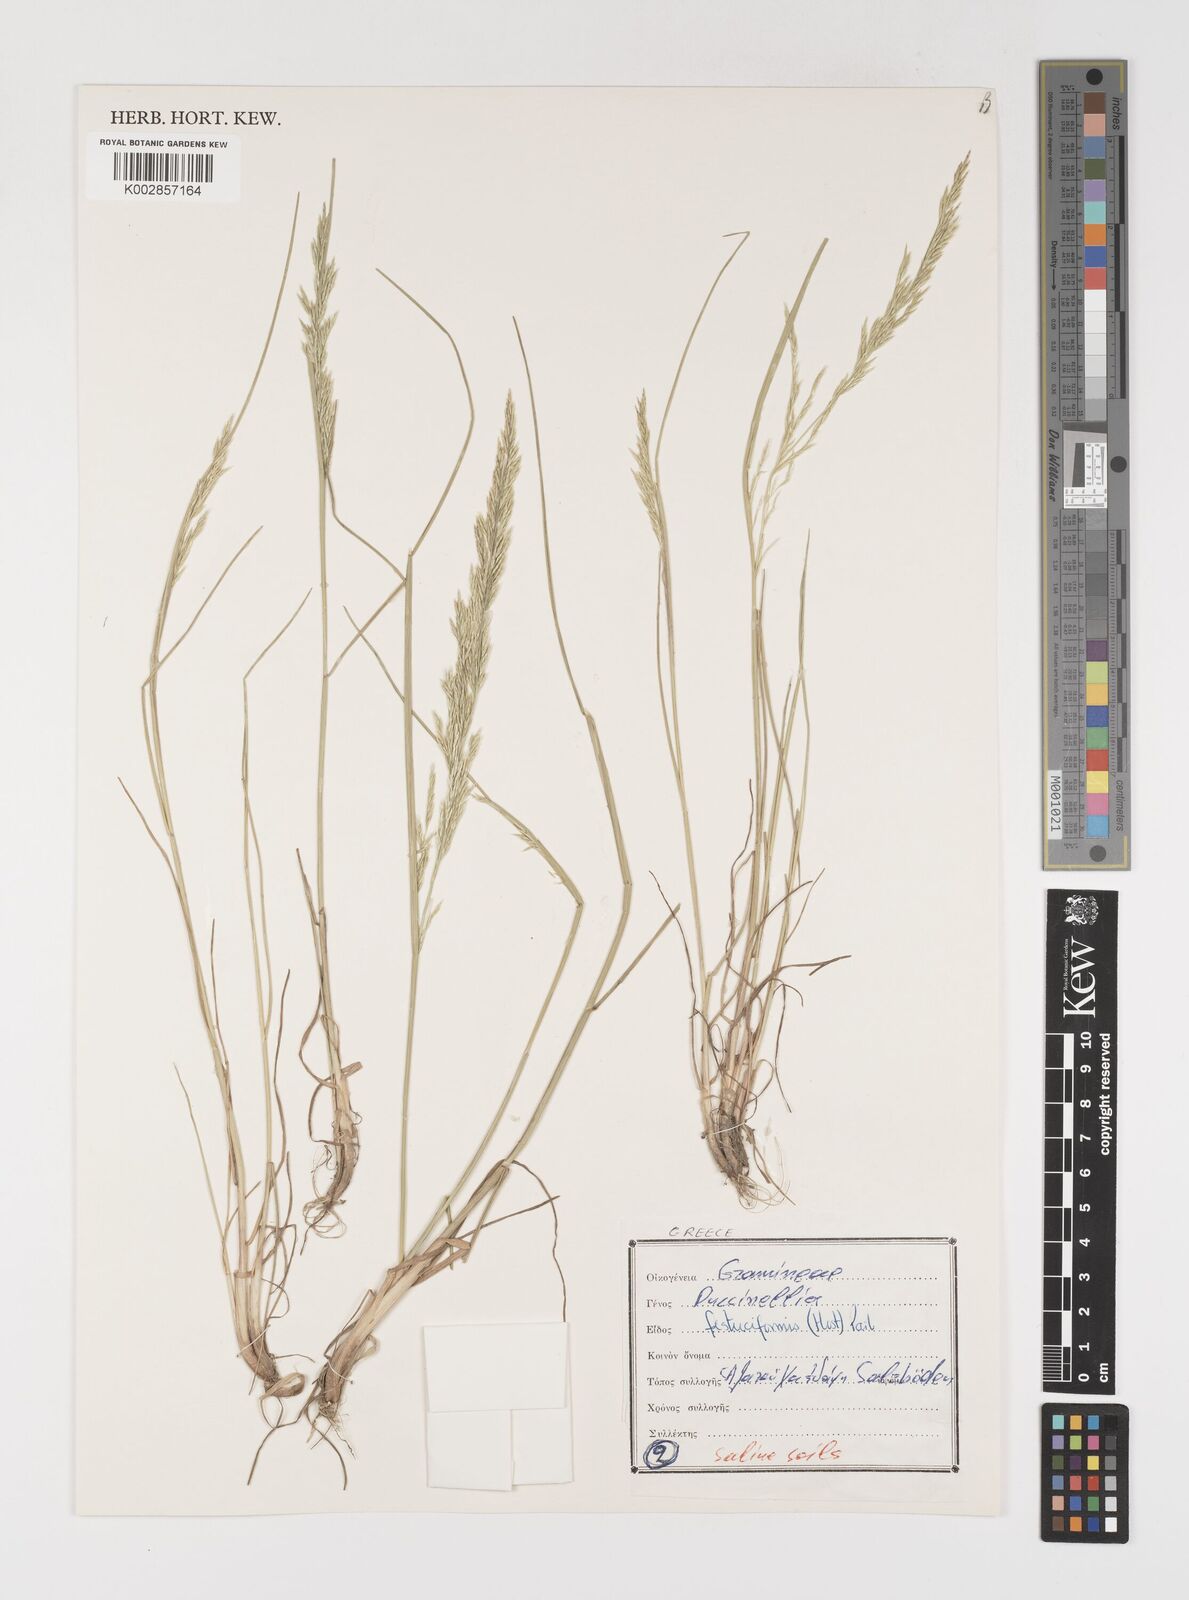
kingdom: Plantae
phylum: Tracheophyta
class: Liliopsida
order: Poales
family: Poaceae
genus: Puccinellia
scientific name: Puccinellia festuciformis
